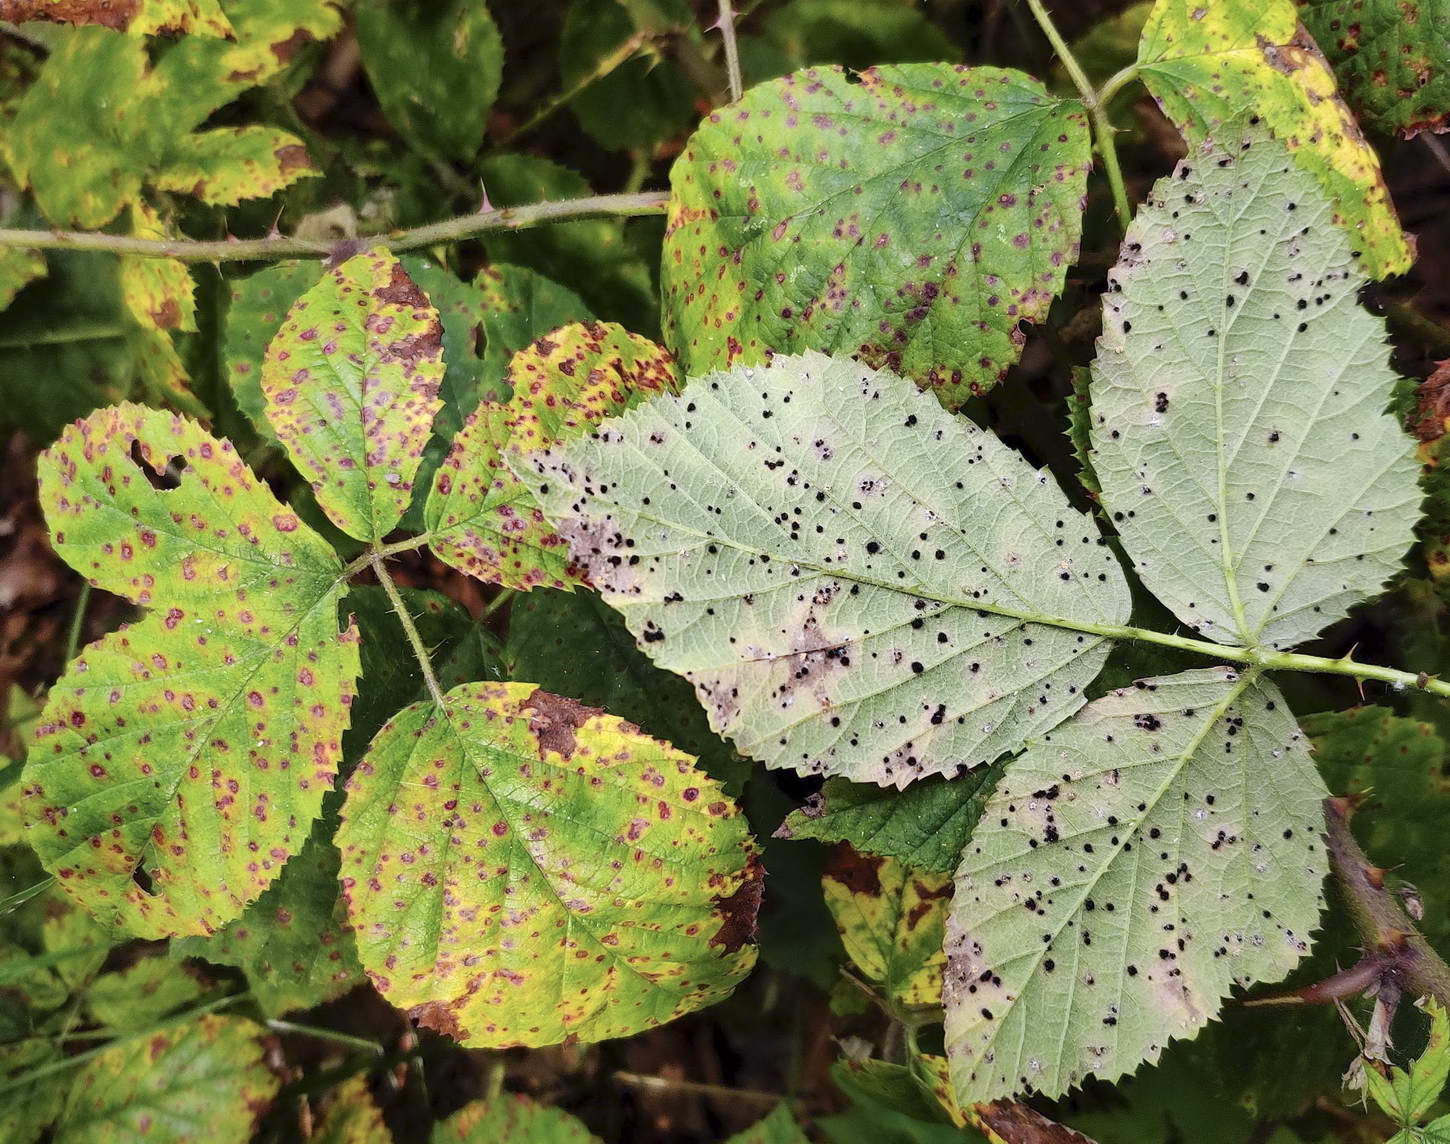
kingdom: Fungi
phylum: Basidiomycota
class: Pucciniomycetes
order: Pucciniales
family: Phragmidiaceae
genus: Phragmidium
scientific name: Phragmidium violaceum
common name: violet flercellerust
